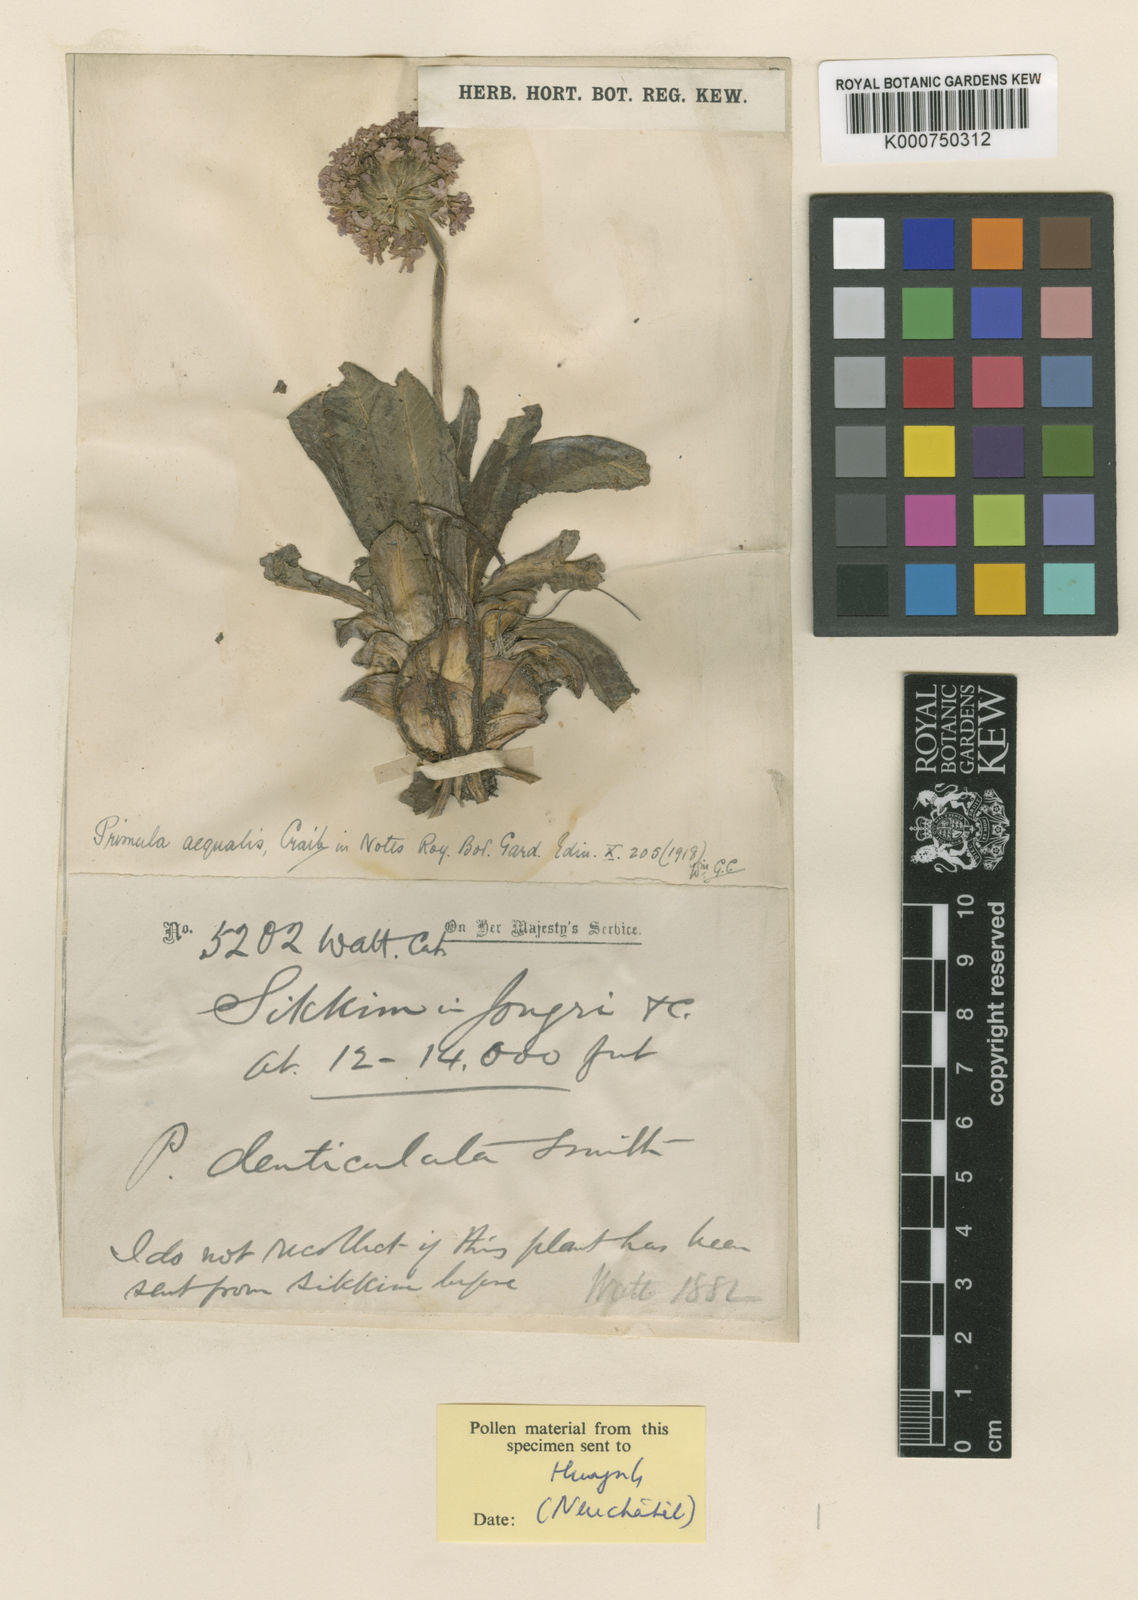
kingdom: Plantae
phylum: Tracheophyta
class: Magnoliopsida
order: Ericales
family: Primulaceae
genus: Primula
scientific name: Primula denticulata
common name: Drumstick primula
